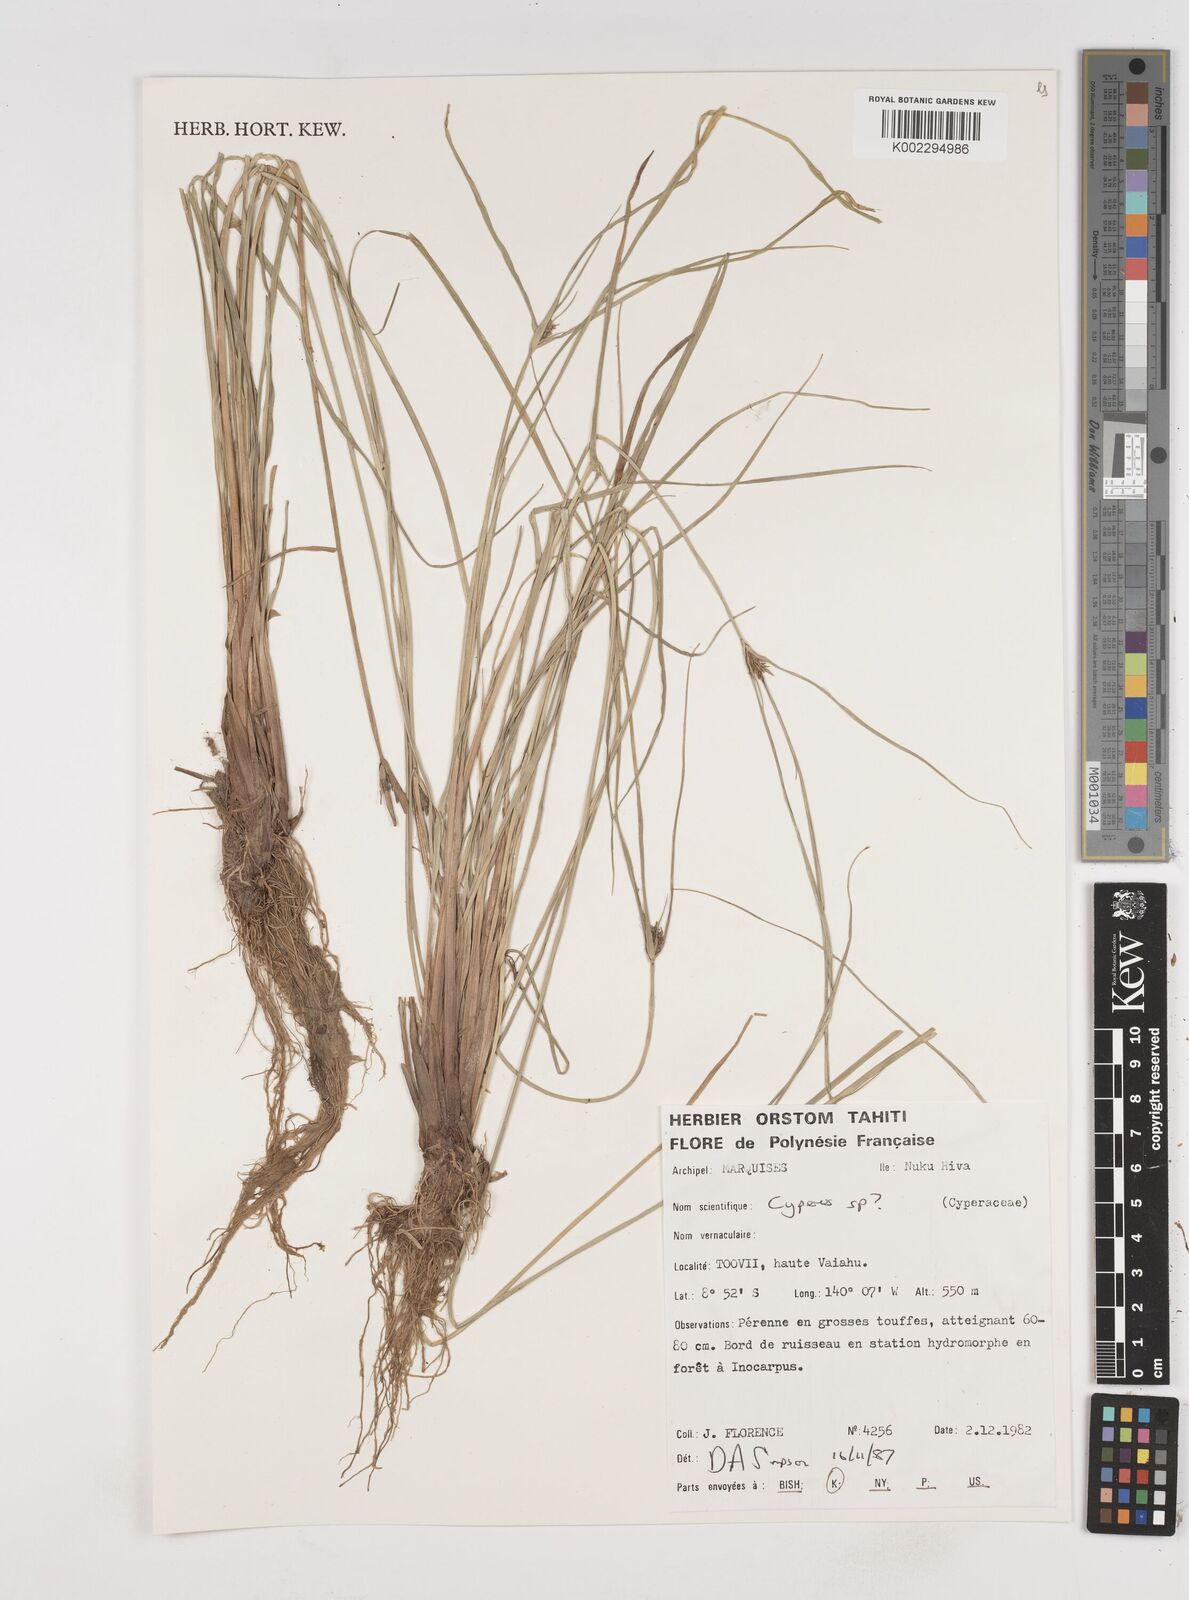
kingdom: Plantae
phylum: Tracheophyta
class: Liliopsida
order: Poales
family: Cyperaceae
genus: Cyperus
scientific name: Cyperus
